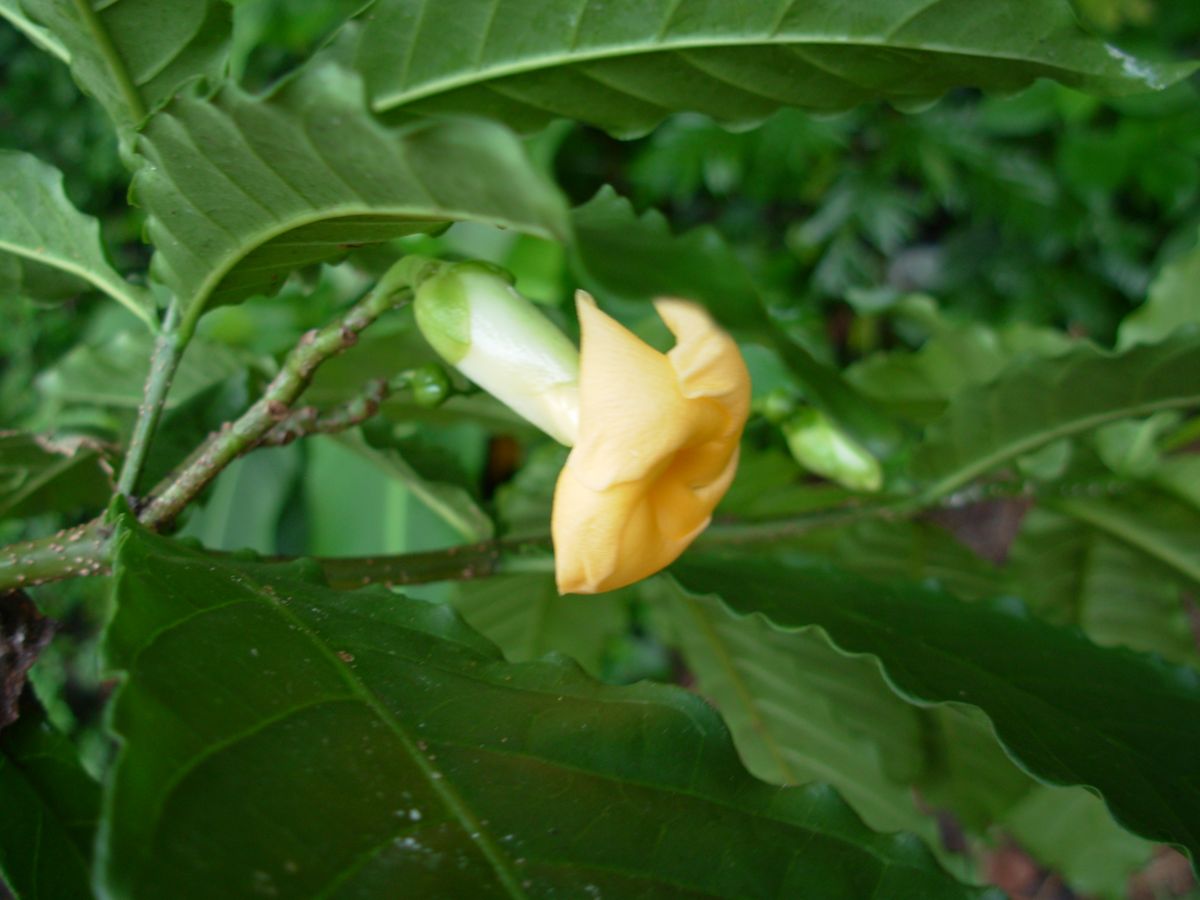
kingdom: Plantae
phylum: Tracheophyta
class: Magnoliopsida
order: Gentianales
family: Apocynaceae
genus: Tabernaemontana
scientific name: Tabernaemontana glabra
